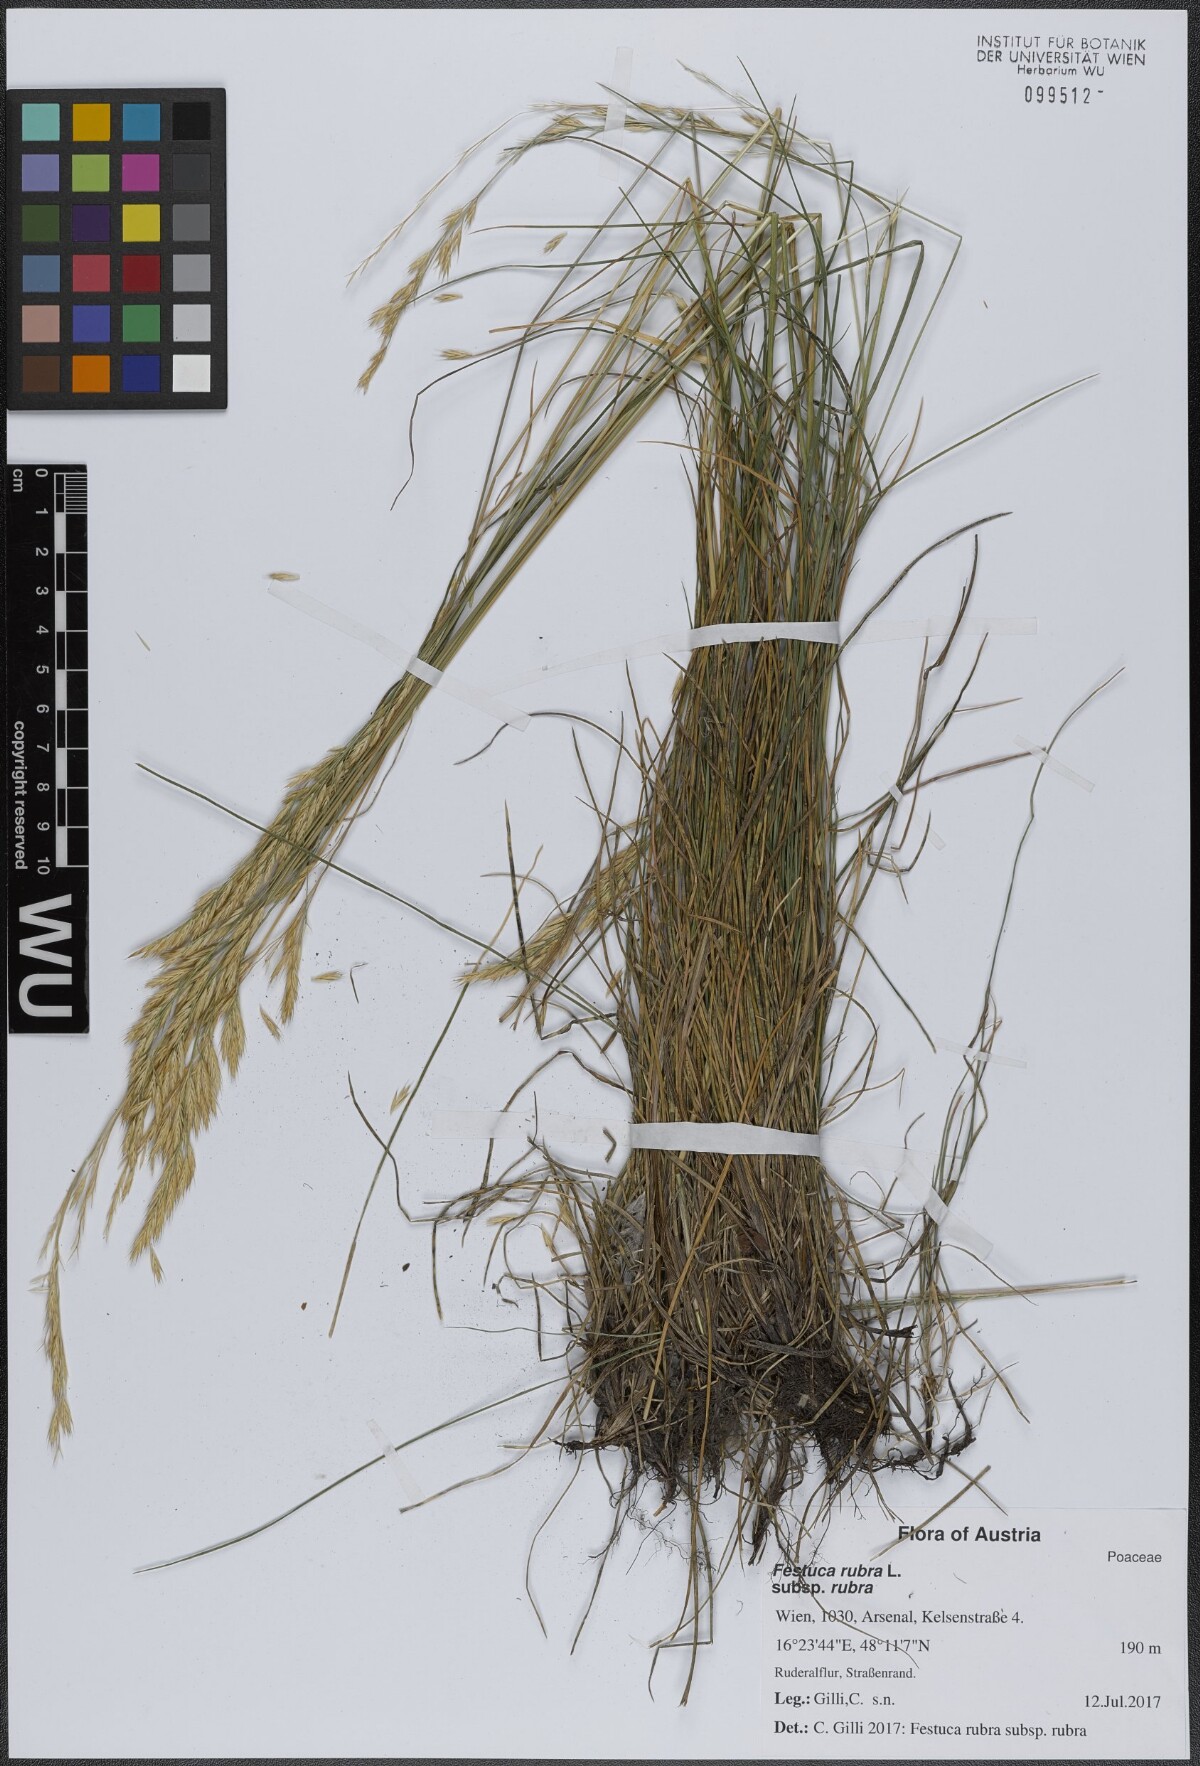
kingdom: Plantae
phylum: Tracheophyta
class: Liliopsida
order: Poales
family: Poaceae
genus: Festuca
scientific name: Festuca rubra
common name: Red fescue
